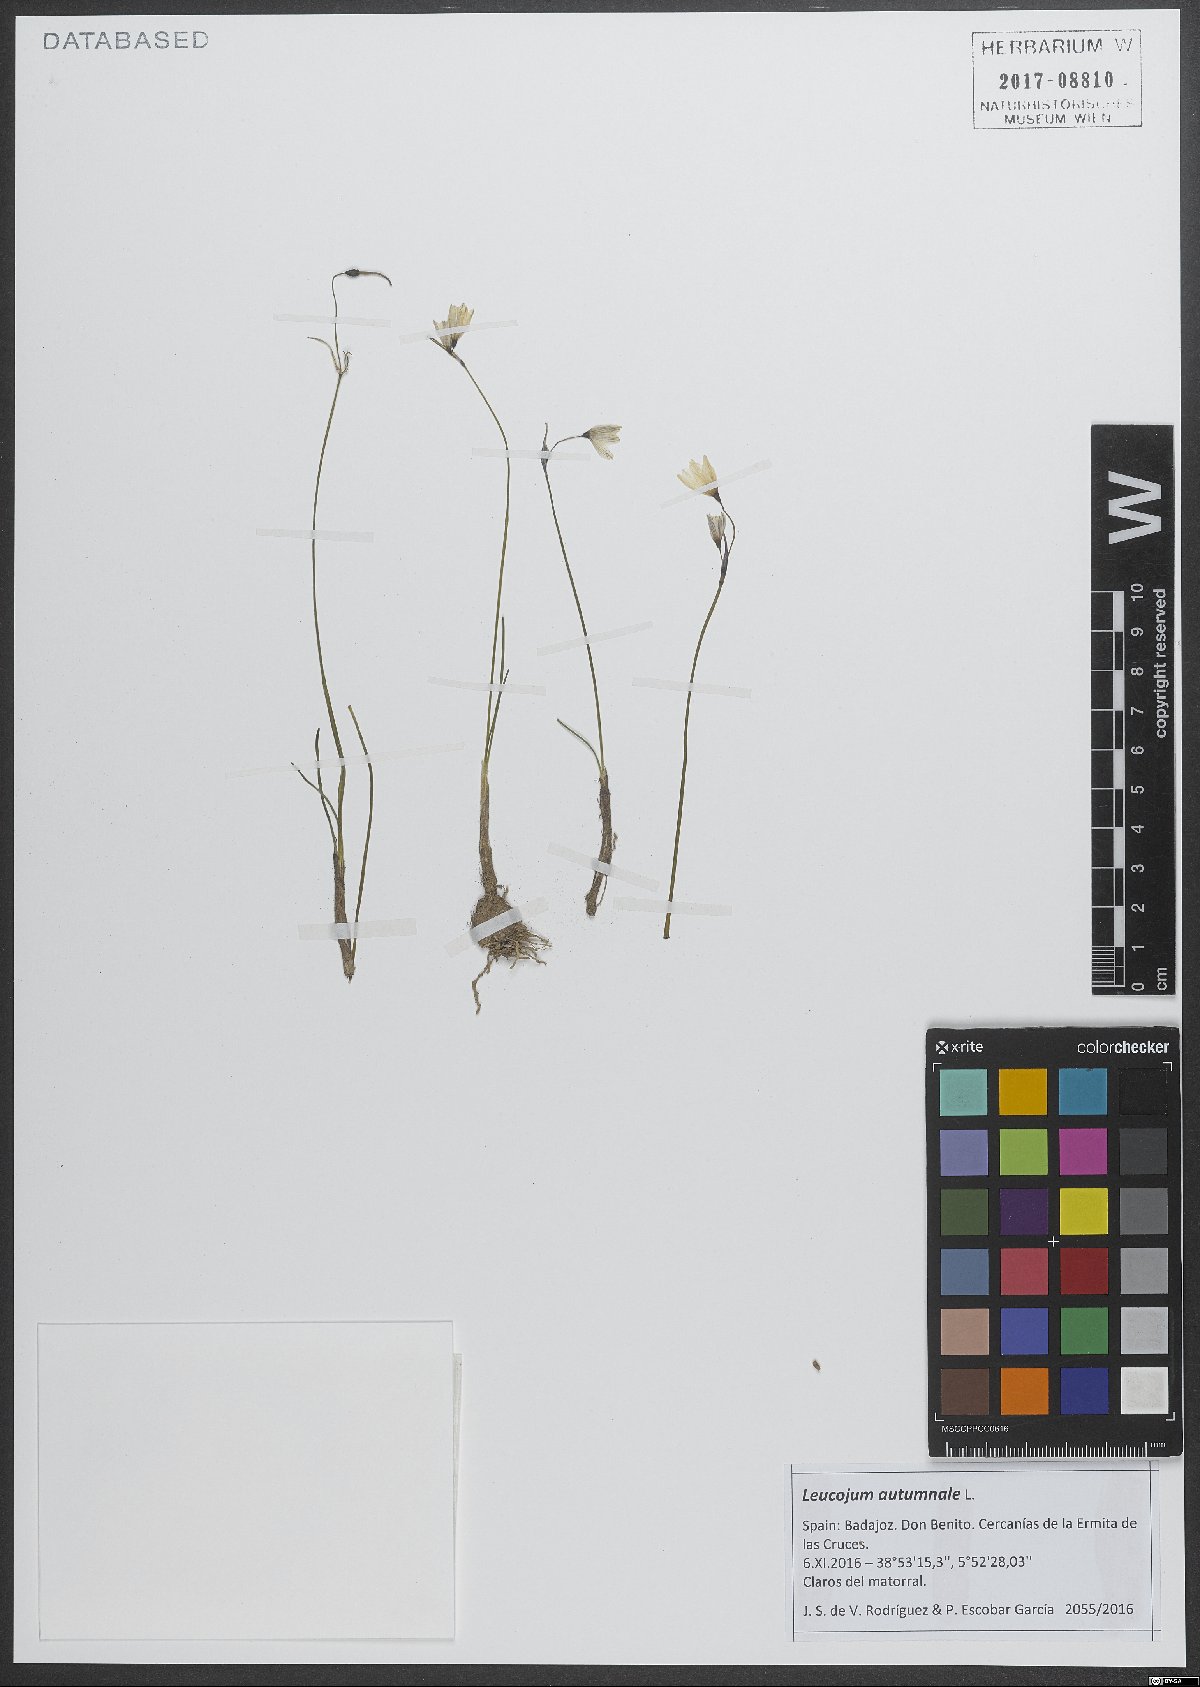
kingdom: Plantae
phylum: Tracheophyta
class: Liliopsida
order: Asparagales
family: Amaryllidaceae
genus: Acis
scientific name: Acis autumnalis
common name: Autumn snowflake
